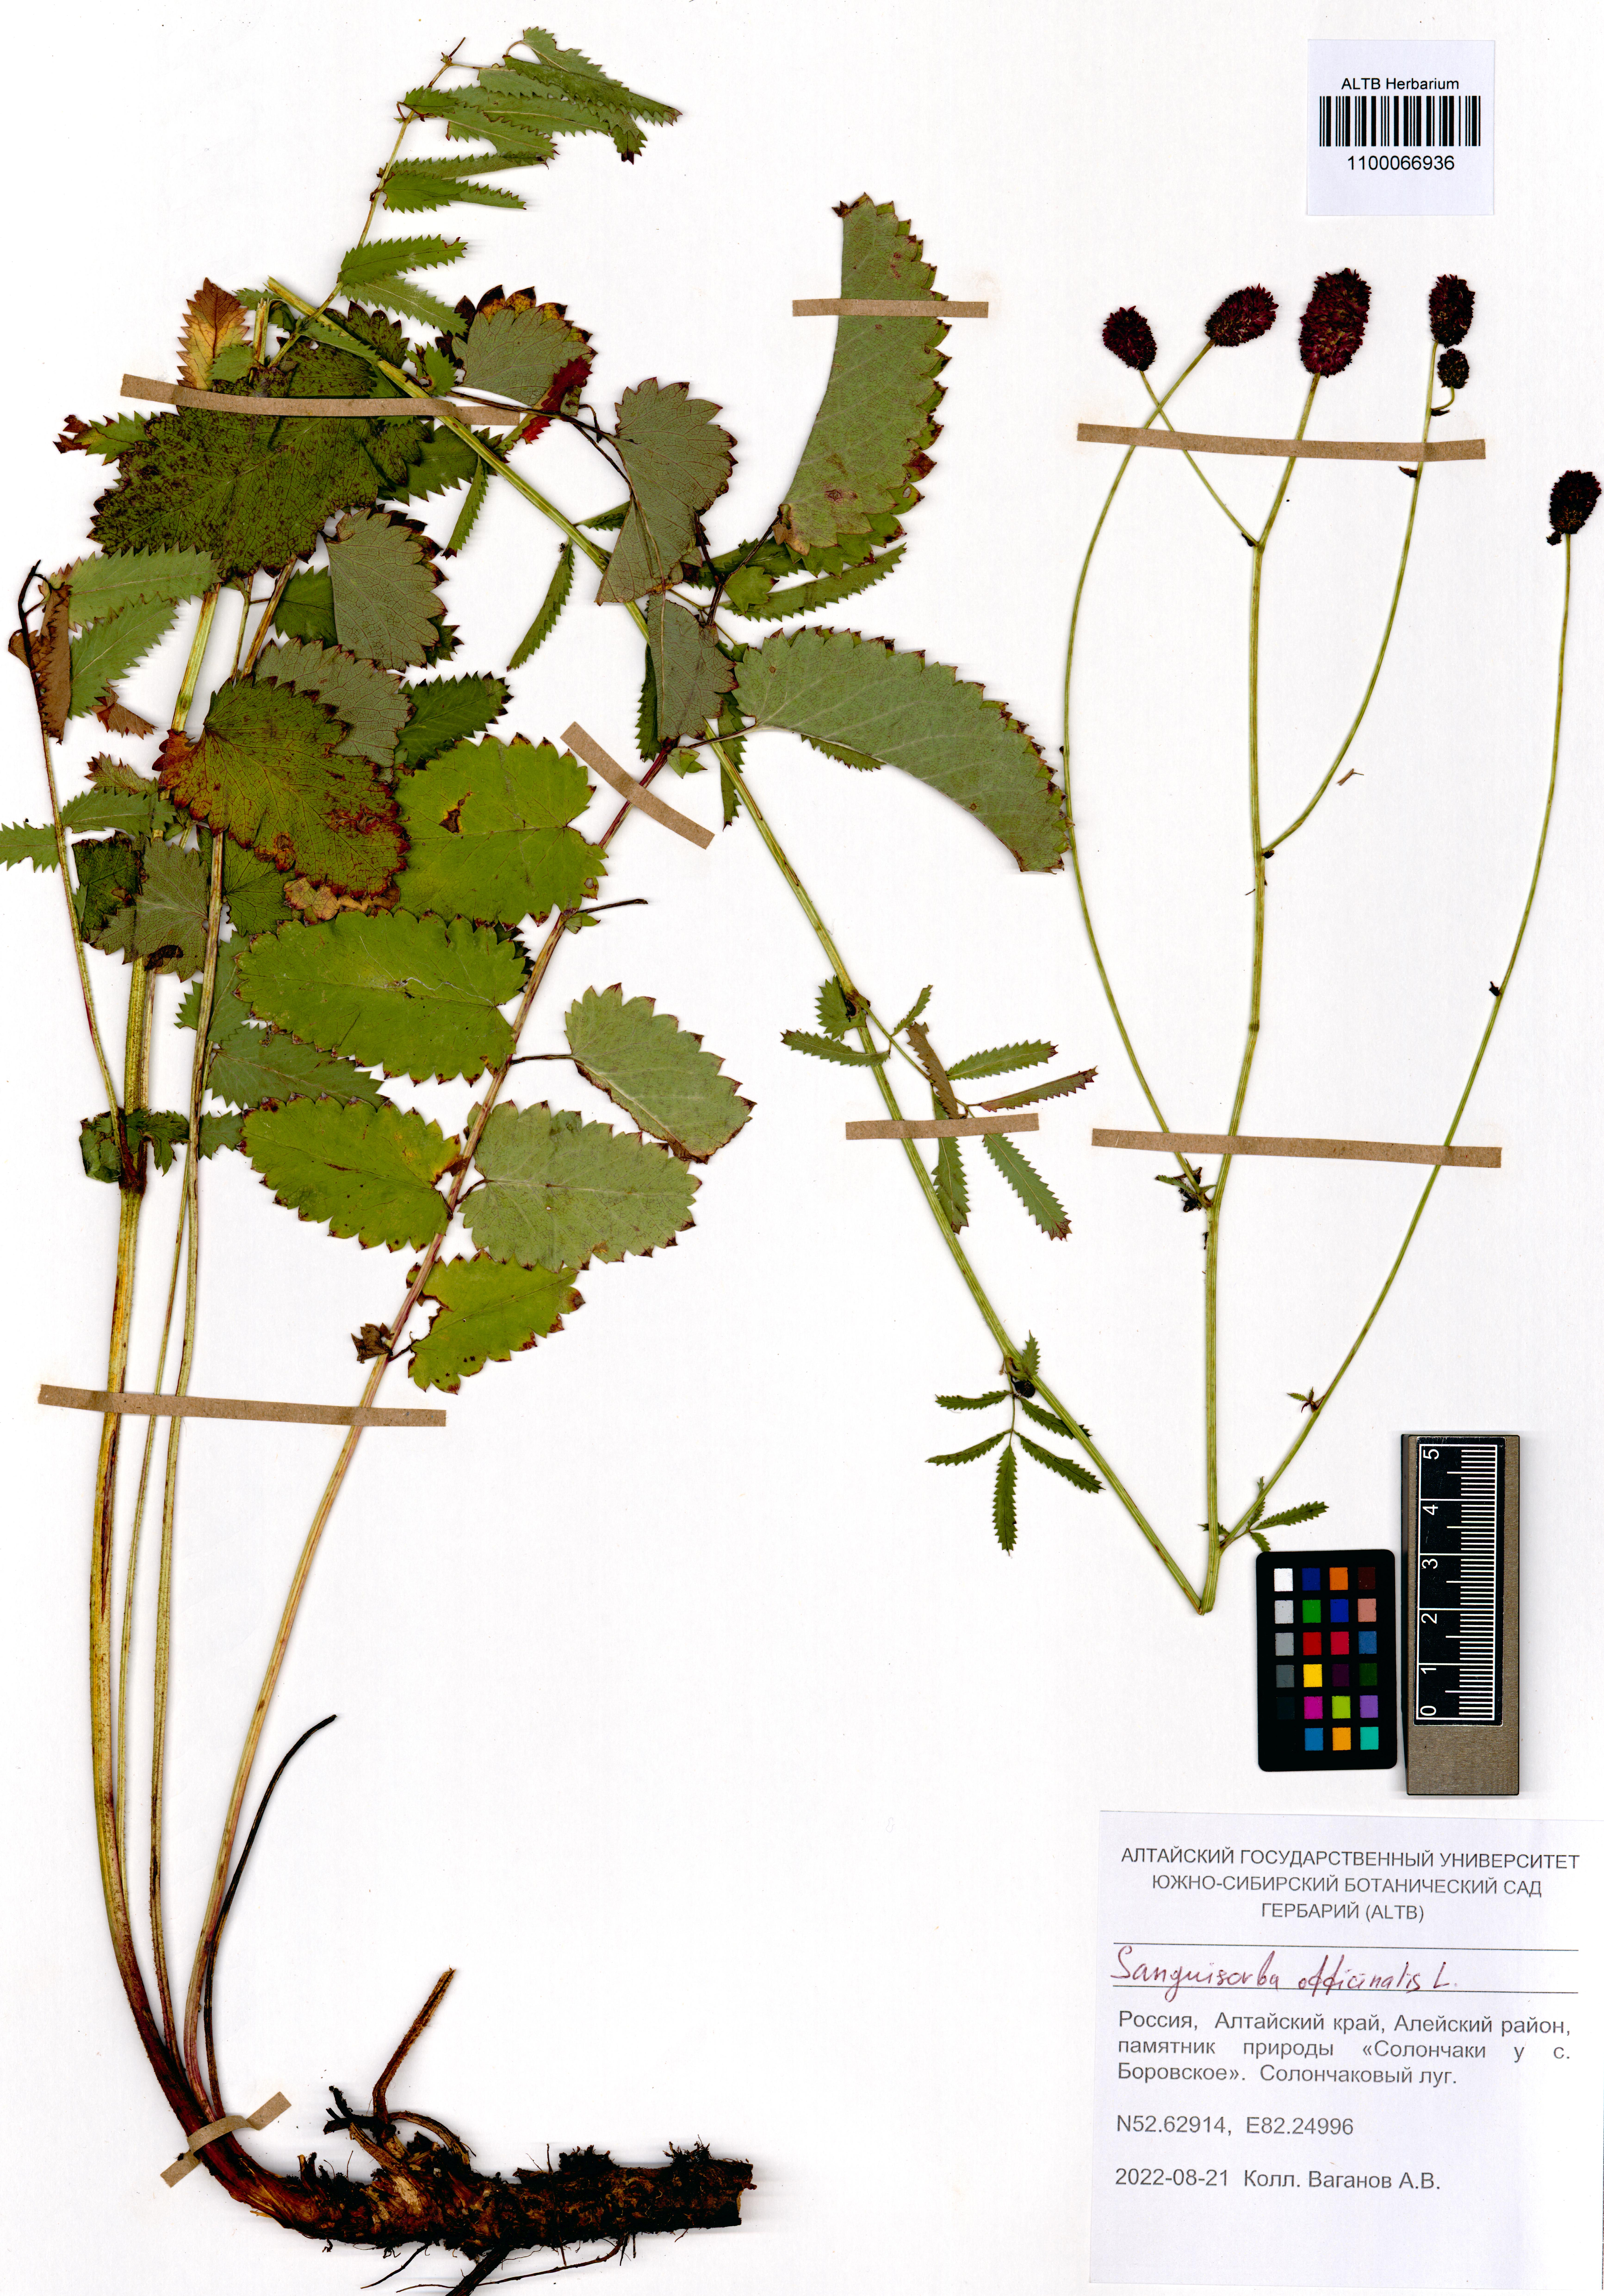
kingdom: Plantae
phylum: Tracheophyta
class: Magnoliopsida
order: Rosales
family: Rosaceae
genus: Sanguisorba
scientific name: Sanguisorba officinalis
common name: Great burnet
